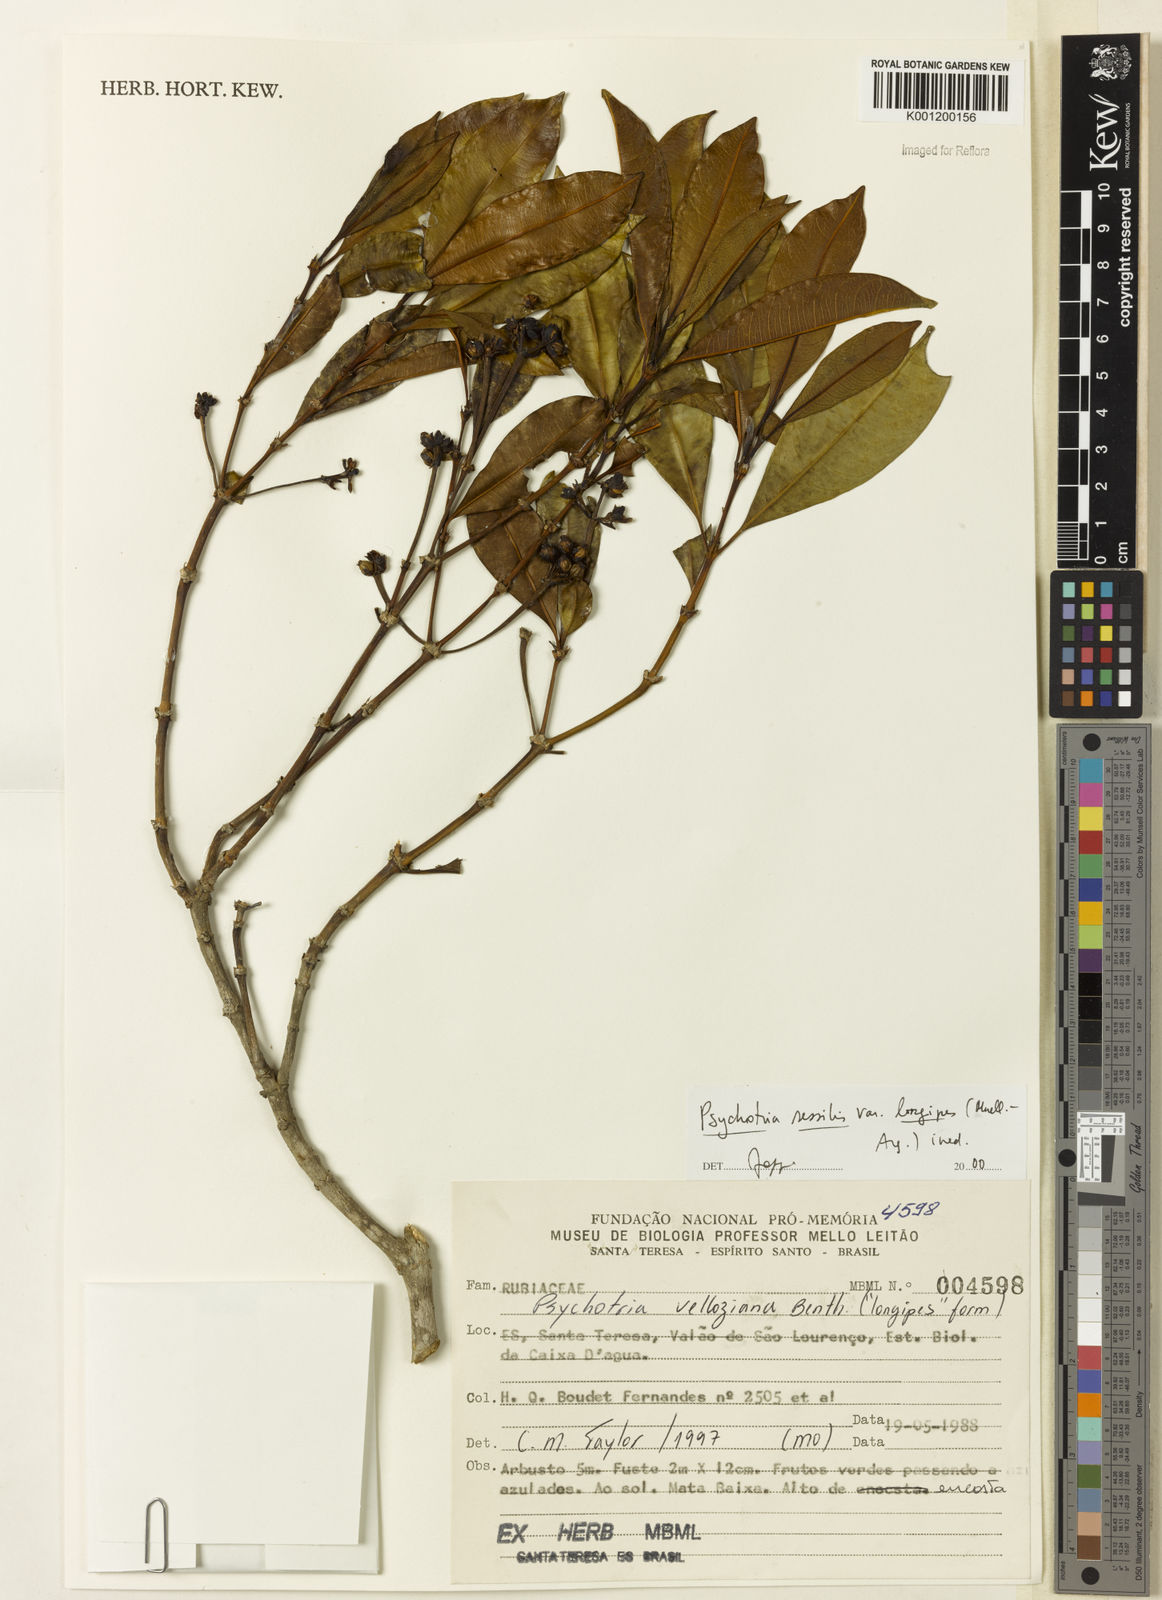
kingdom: Plantae
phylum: Tracheophyta
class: Magnoliopsida
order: Gentianales
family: Rubiaceae
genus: Rudgea
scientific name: Rudgea sessilis
